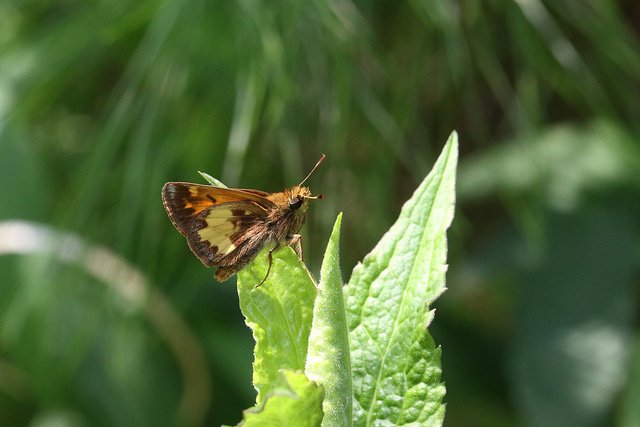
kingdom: Animalia
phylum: Arthropoda
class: Insecta
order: Lepidoptera
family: Hesperiidae
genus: Lon
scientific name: Lon hobomok
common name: Hobomok Skipper
